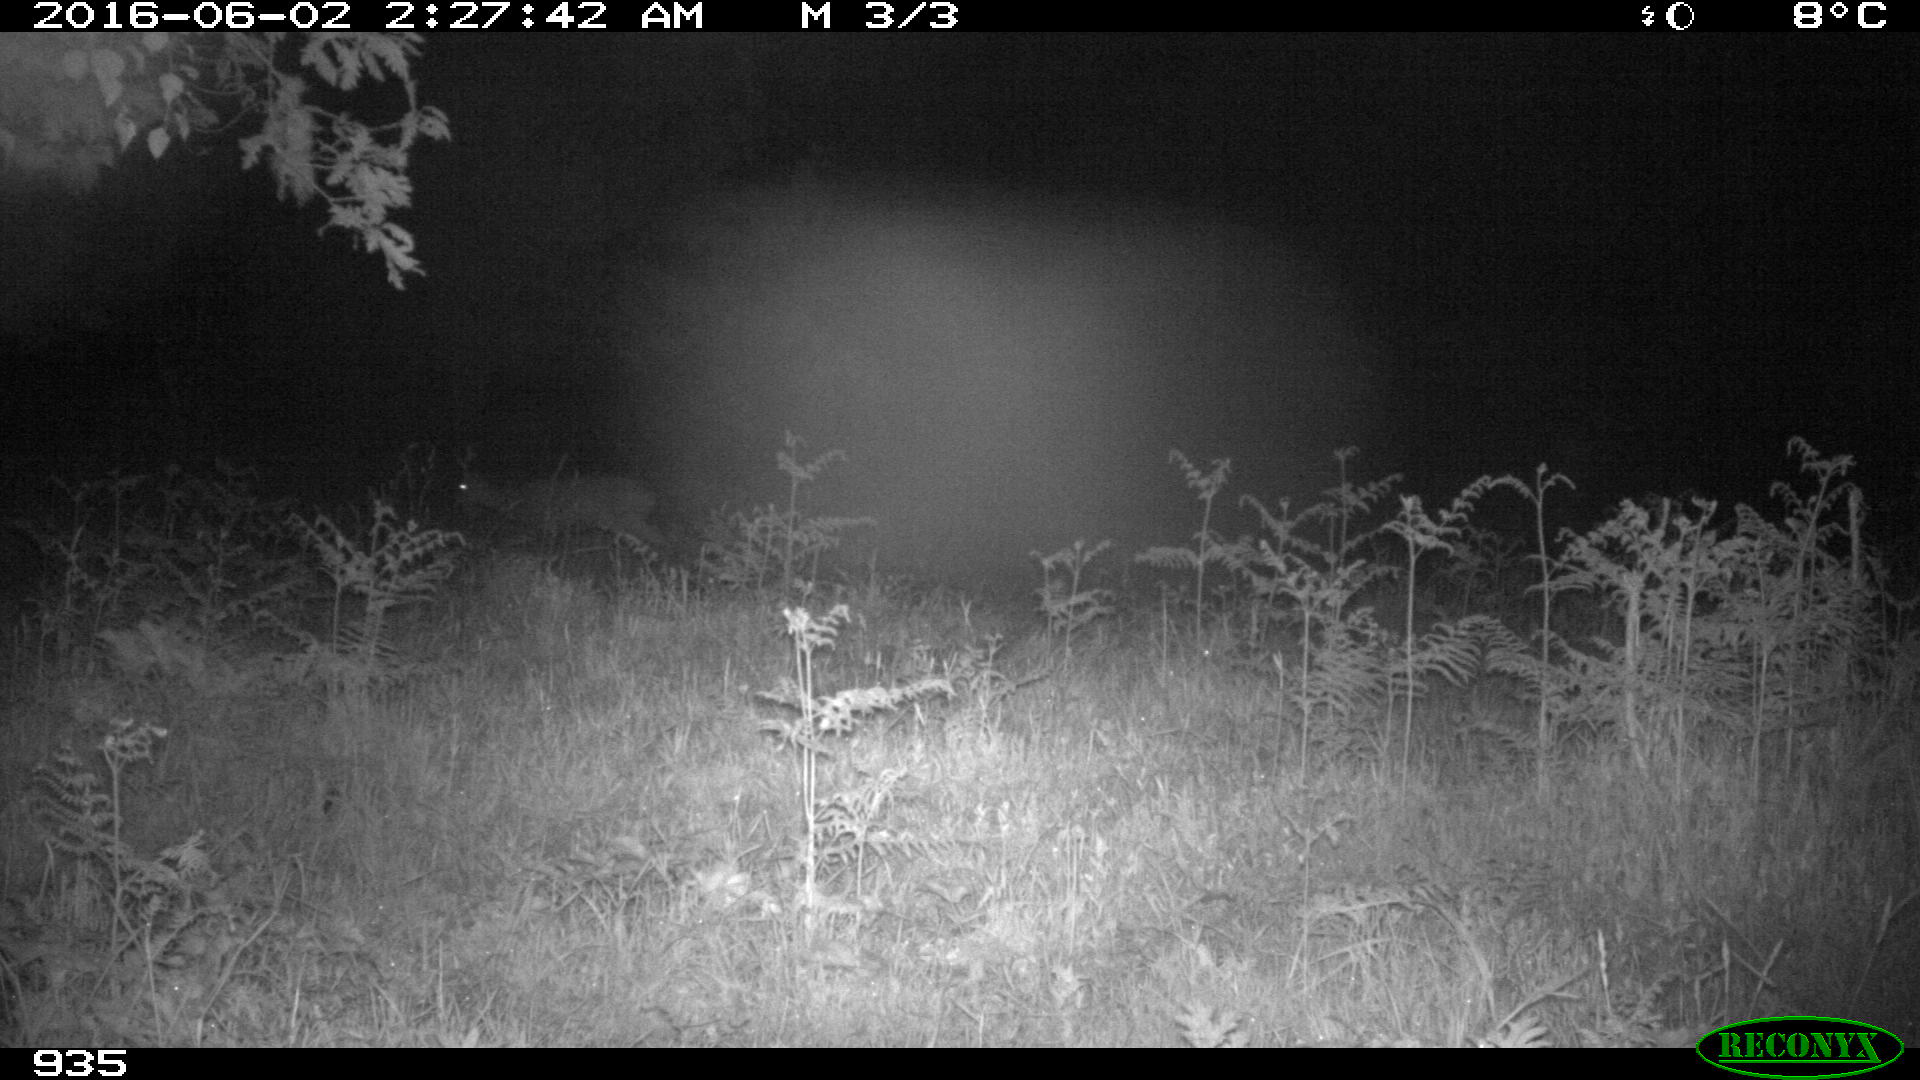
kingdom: Animalia
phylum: Chordata
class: Mammalia
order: Artiodactyla
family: Cervidae
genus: Capreolus
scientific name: Capreolus capreolus
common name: Western roe deer
